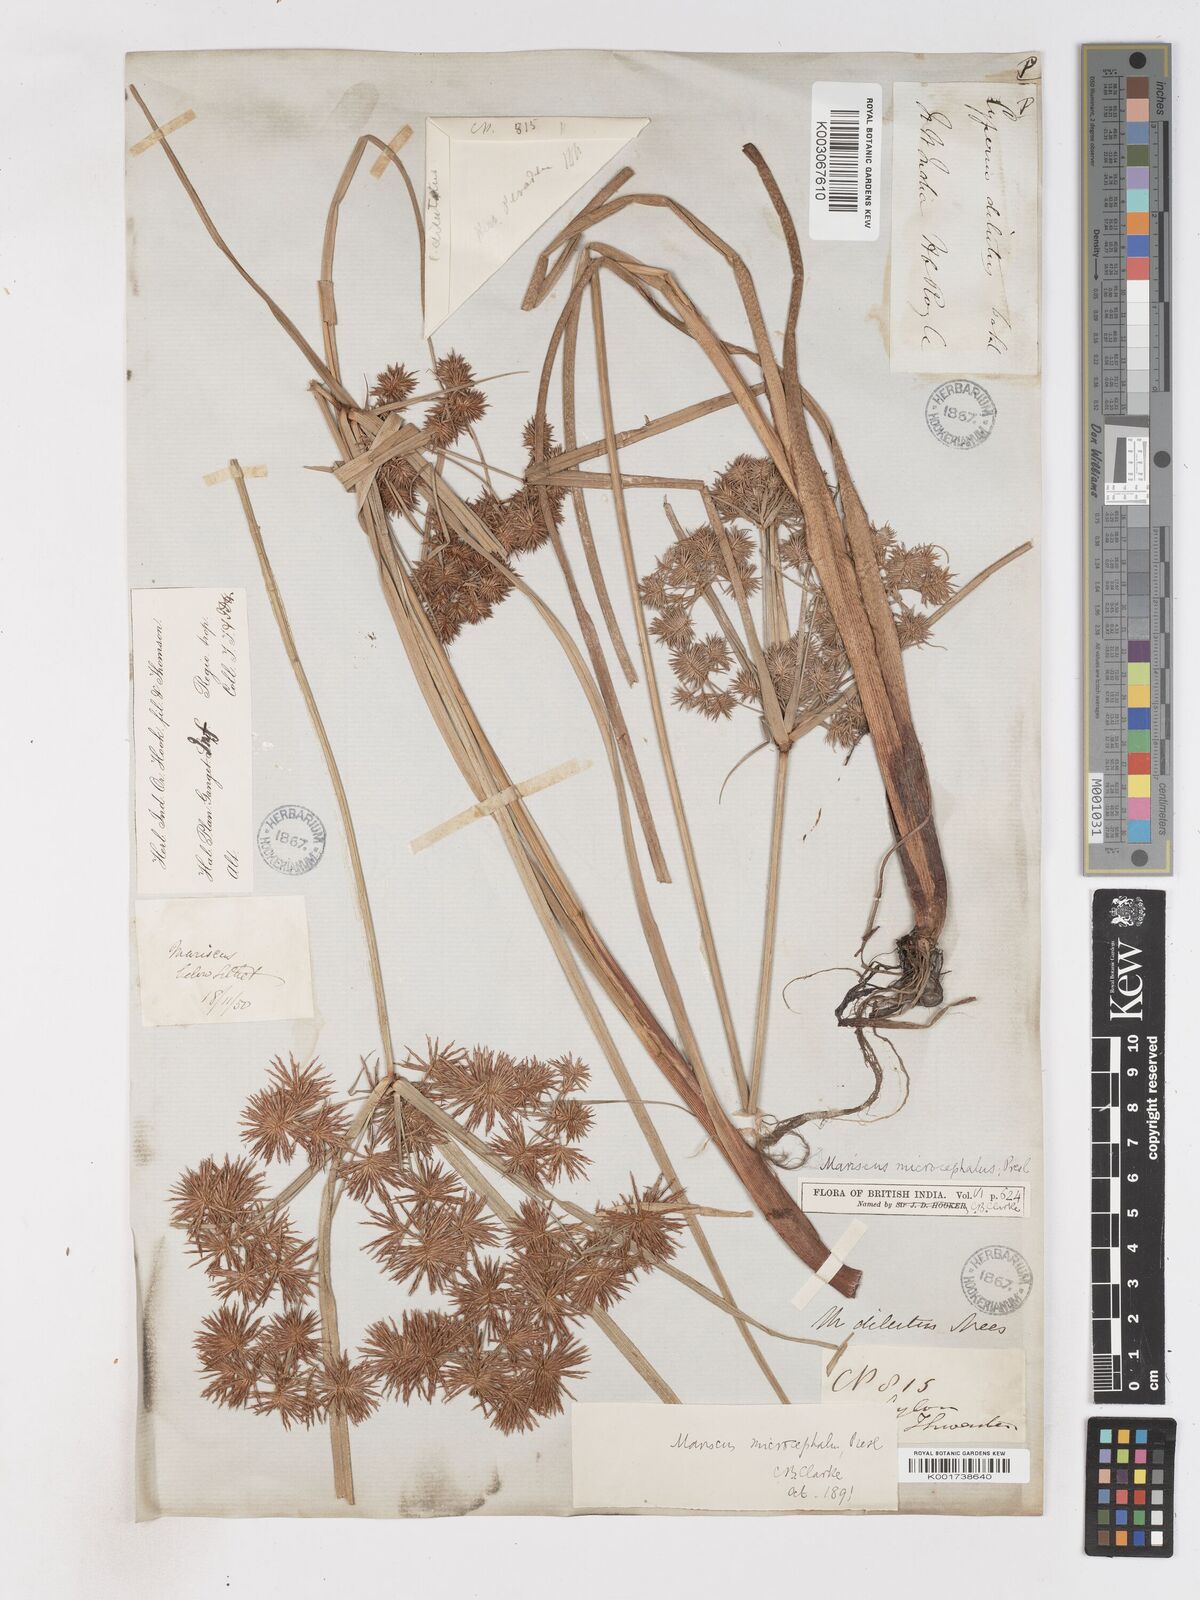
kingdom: Plantae
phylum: Tracheophyta
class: Liliopsida
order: Poales
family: Cyperaceae
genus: Cyperus
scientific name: Cyperus compactus
